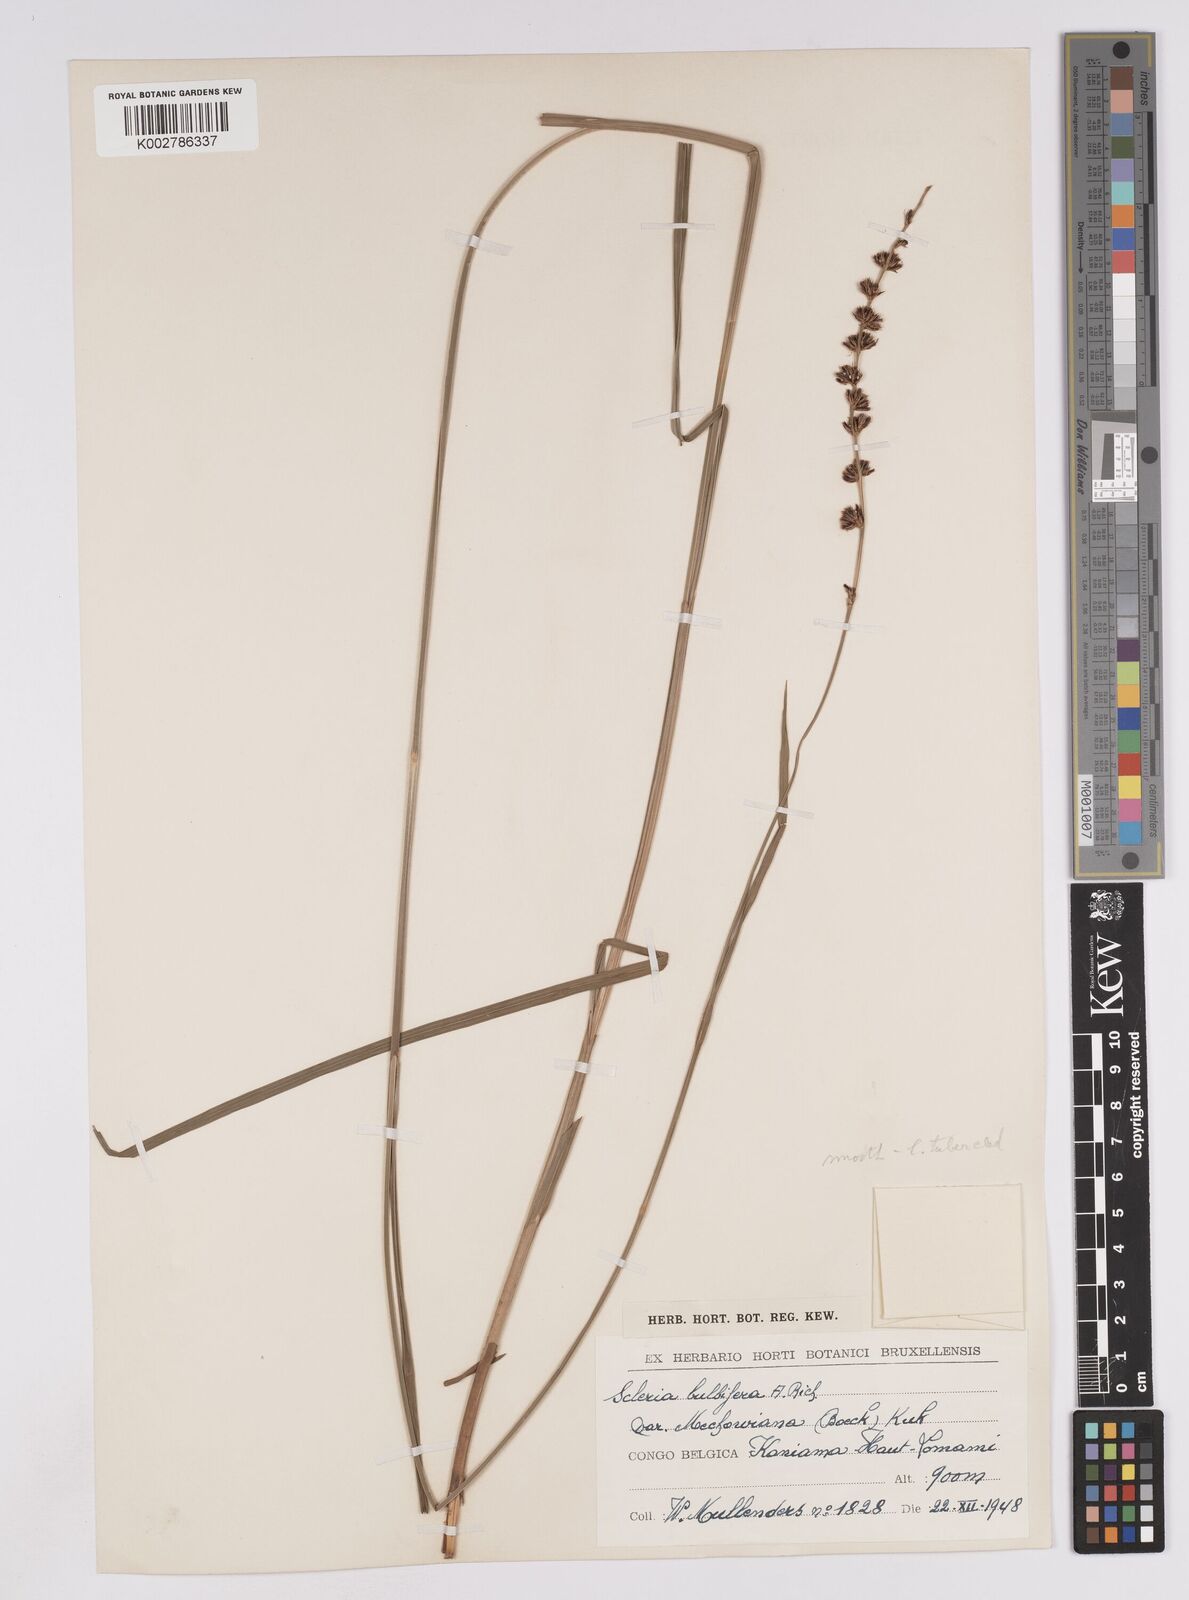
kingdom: Plantae
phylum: Tracheophyta
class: Liliopsida
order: Poales
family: Cyperaceae
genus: Scleria
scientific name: Scleria bulbifera
